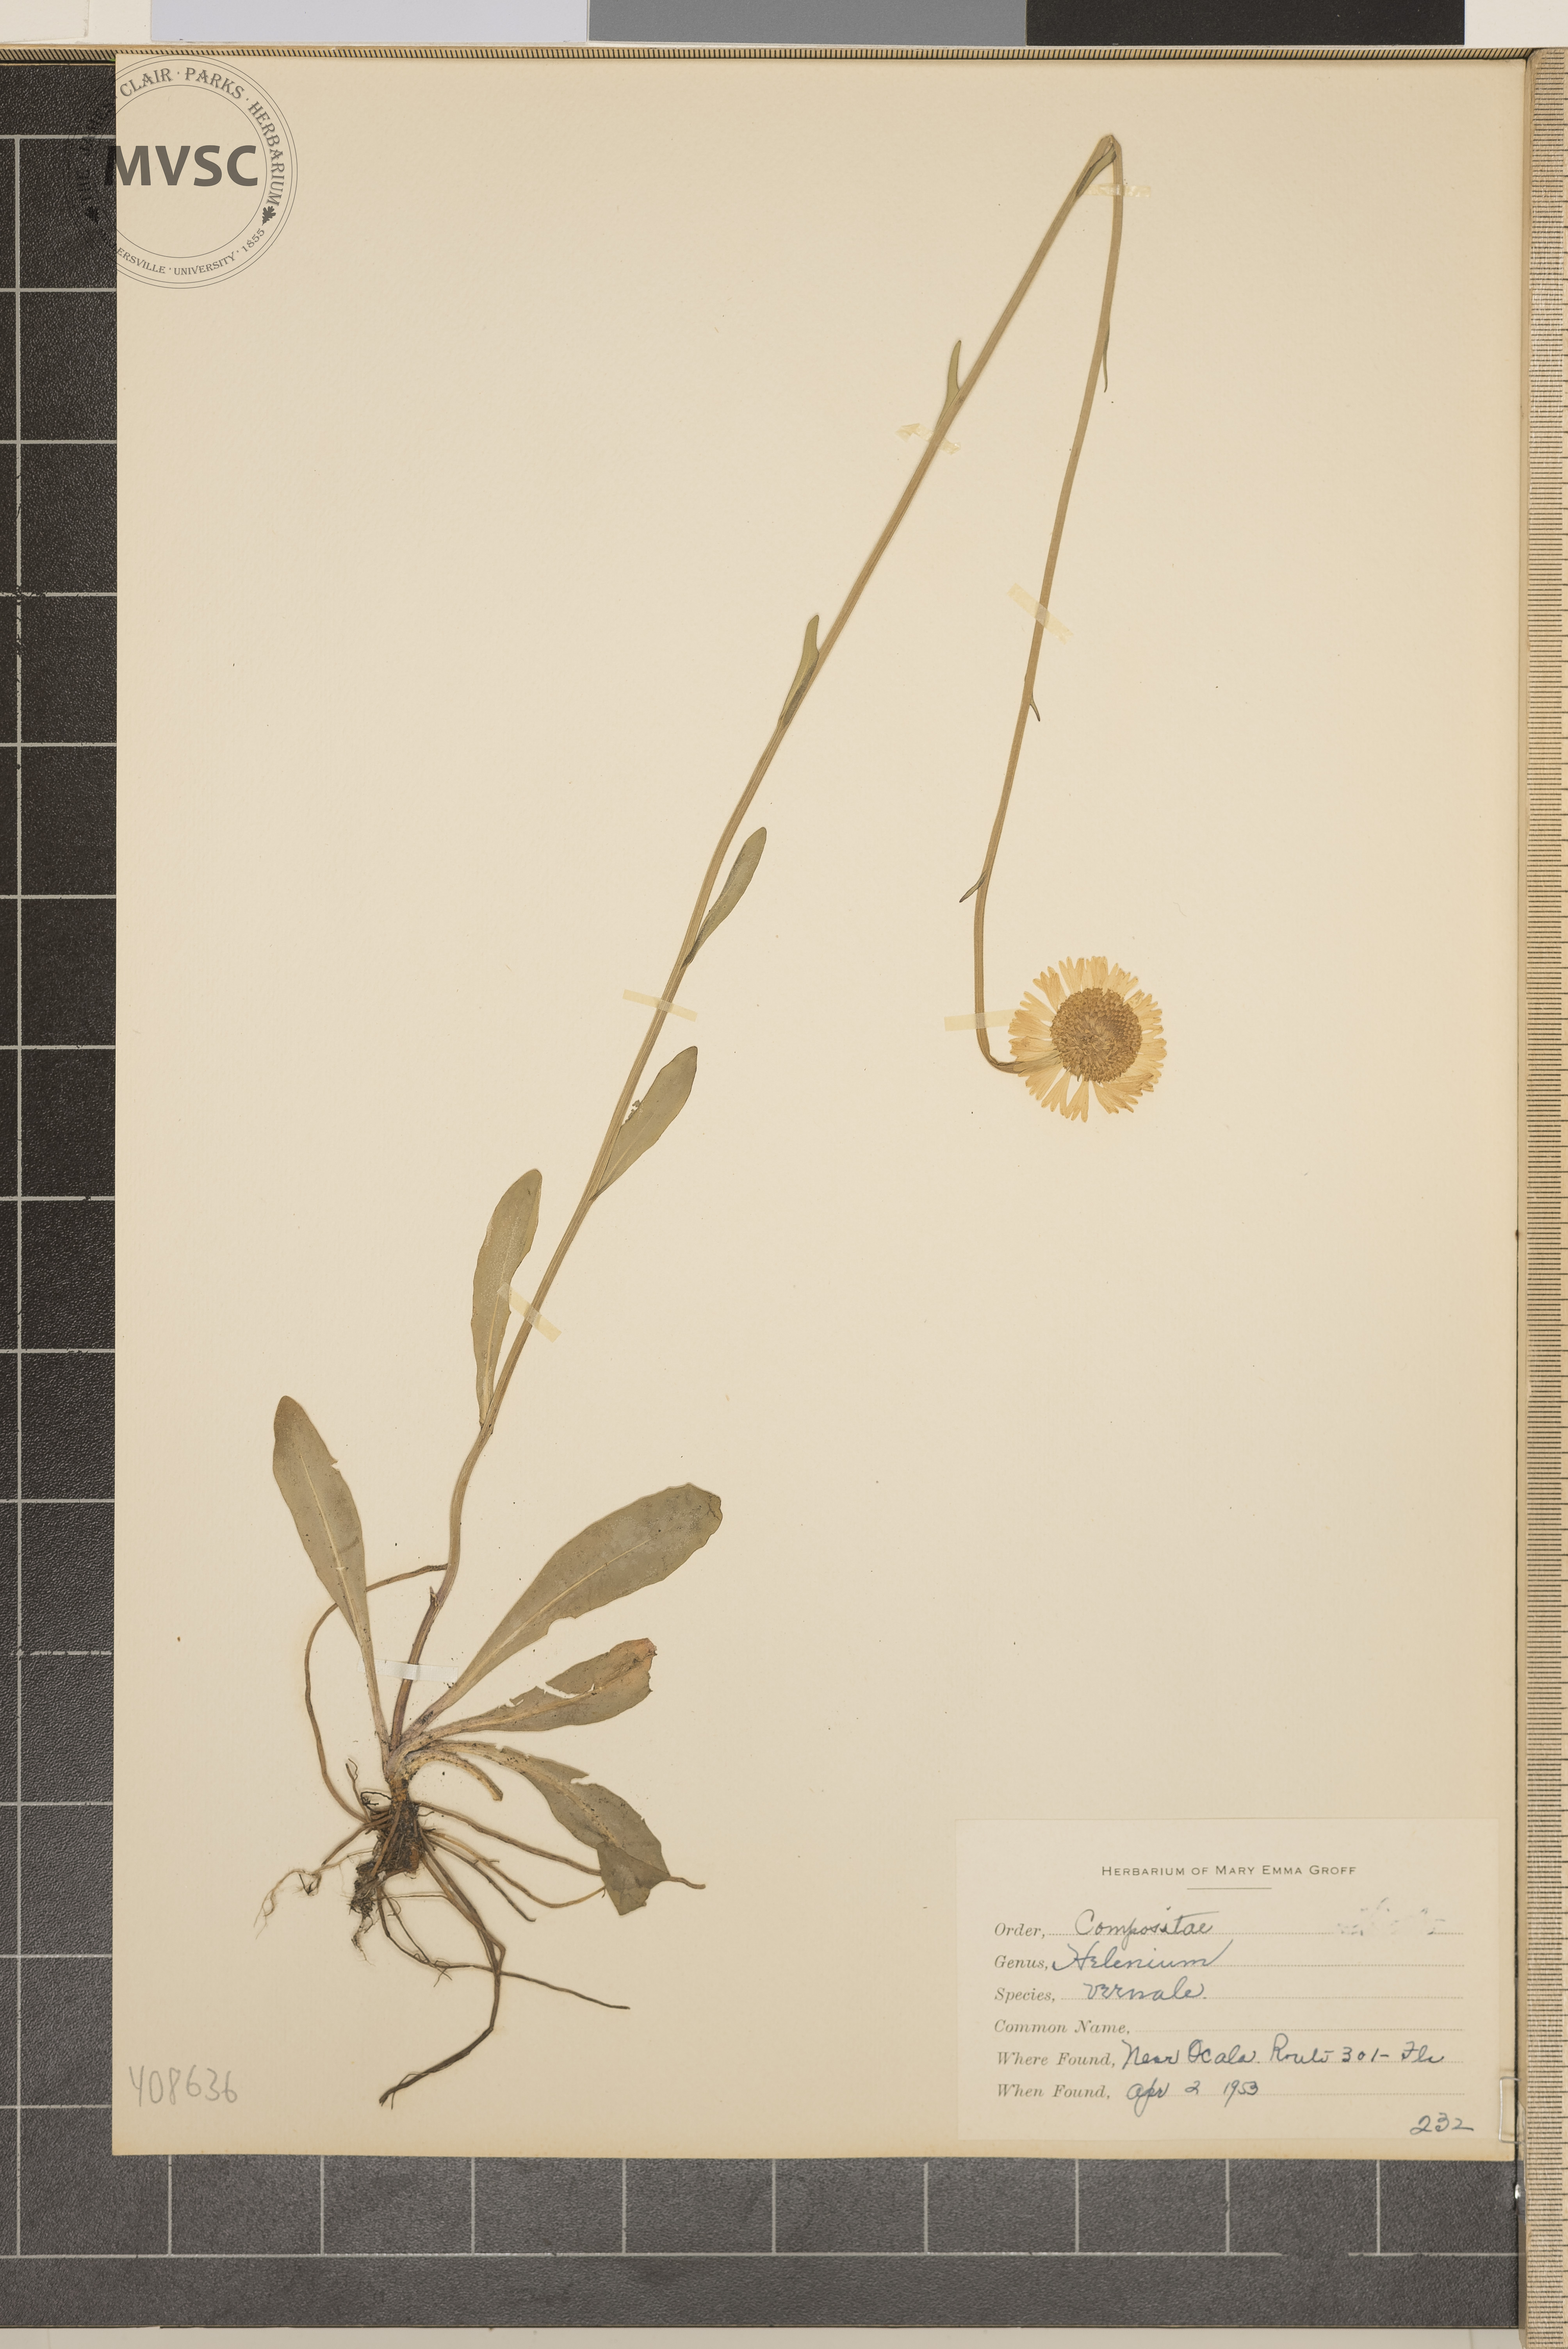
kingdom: Plantae
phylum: Tracheophyta
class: Magnoliopsida
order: Asterales
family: Asteraceae
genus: Helenium
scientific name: Helenium vernale
